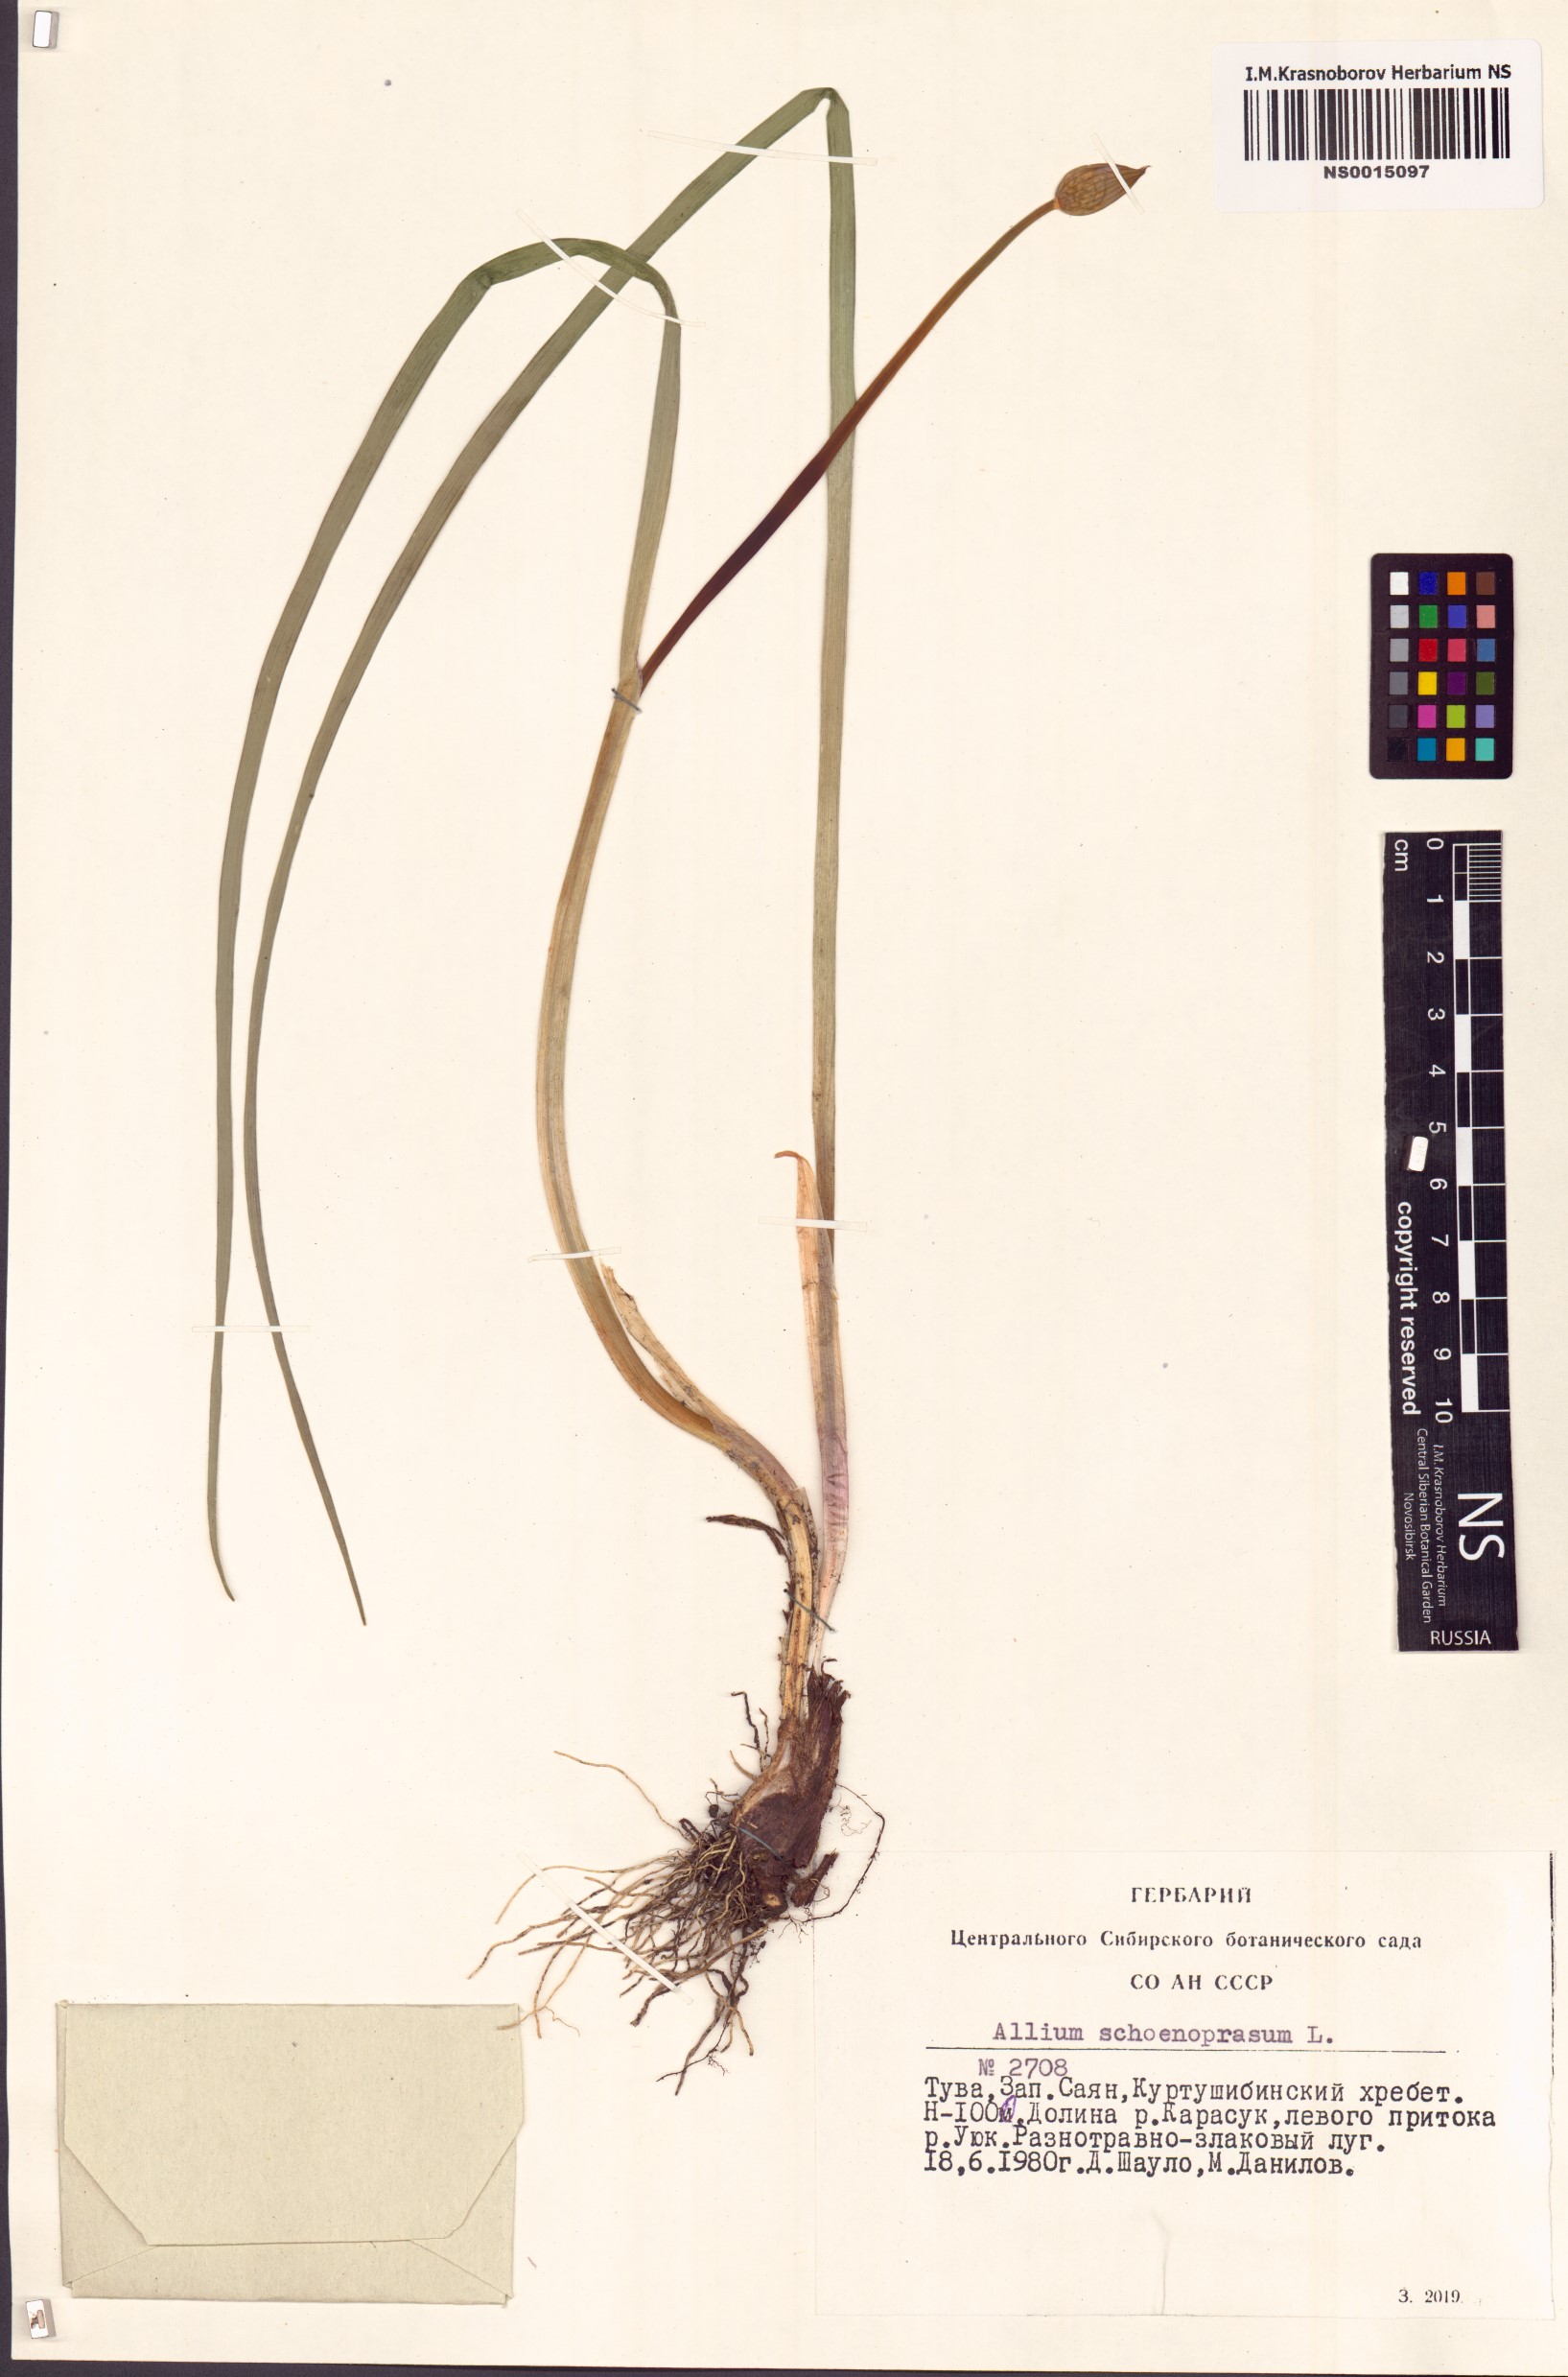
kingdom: Plantae
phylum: Tracheophyta
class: Liliopsida
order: Asparagales
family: Amaryllidaceae
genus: Allium
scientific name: Allium schoenoprasum
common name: Chives
